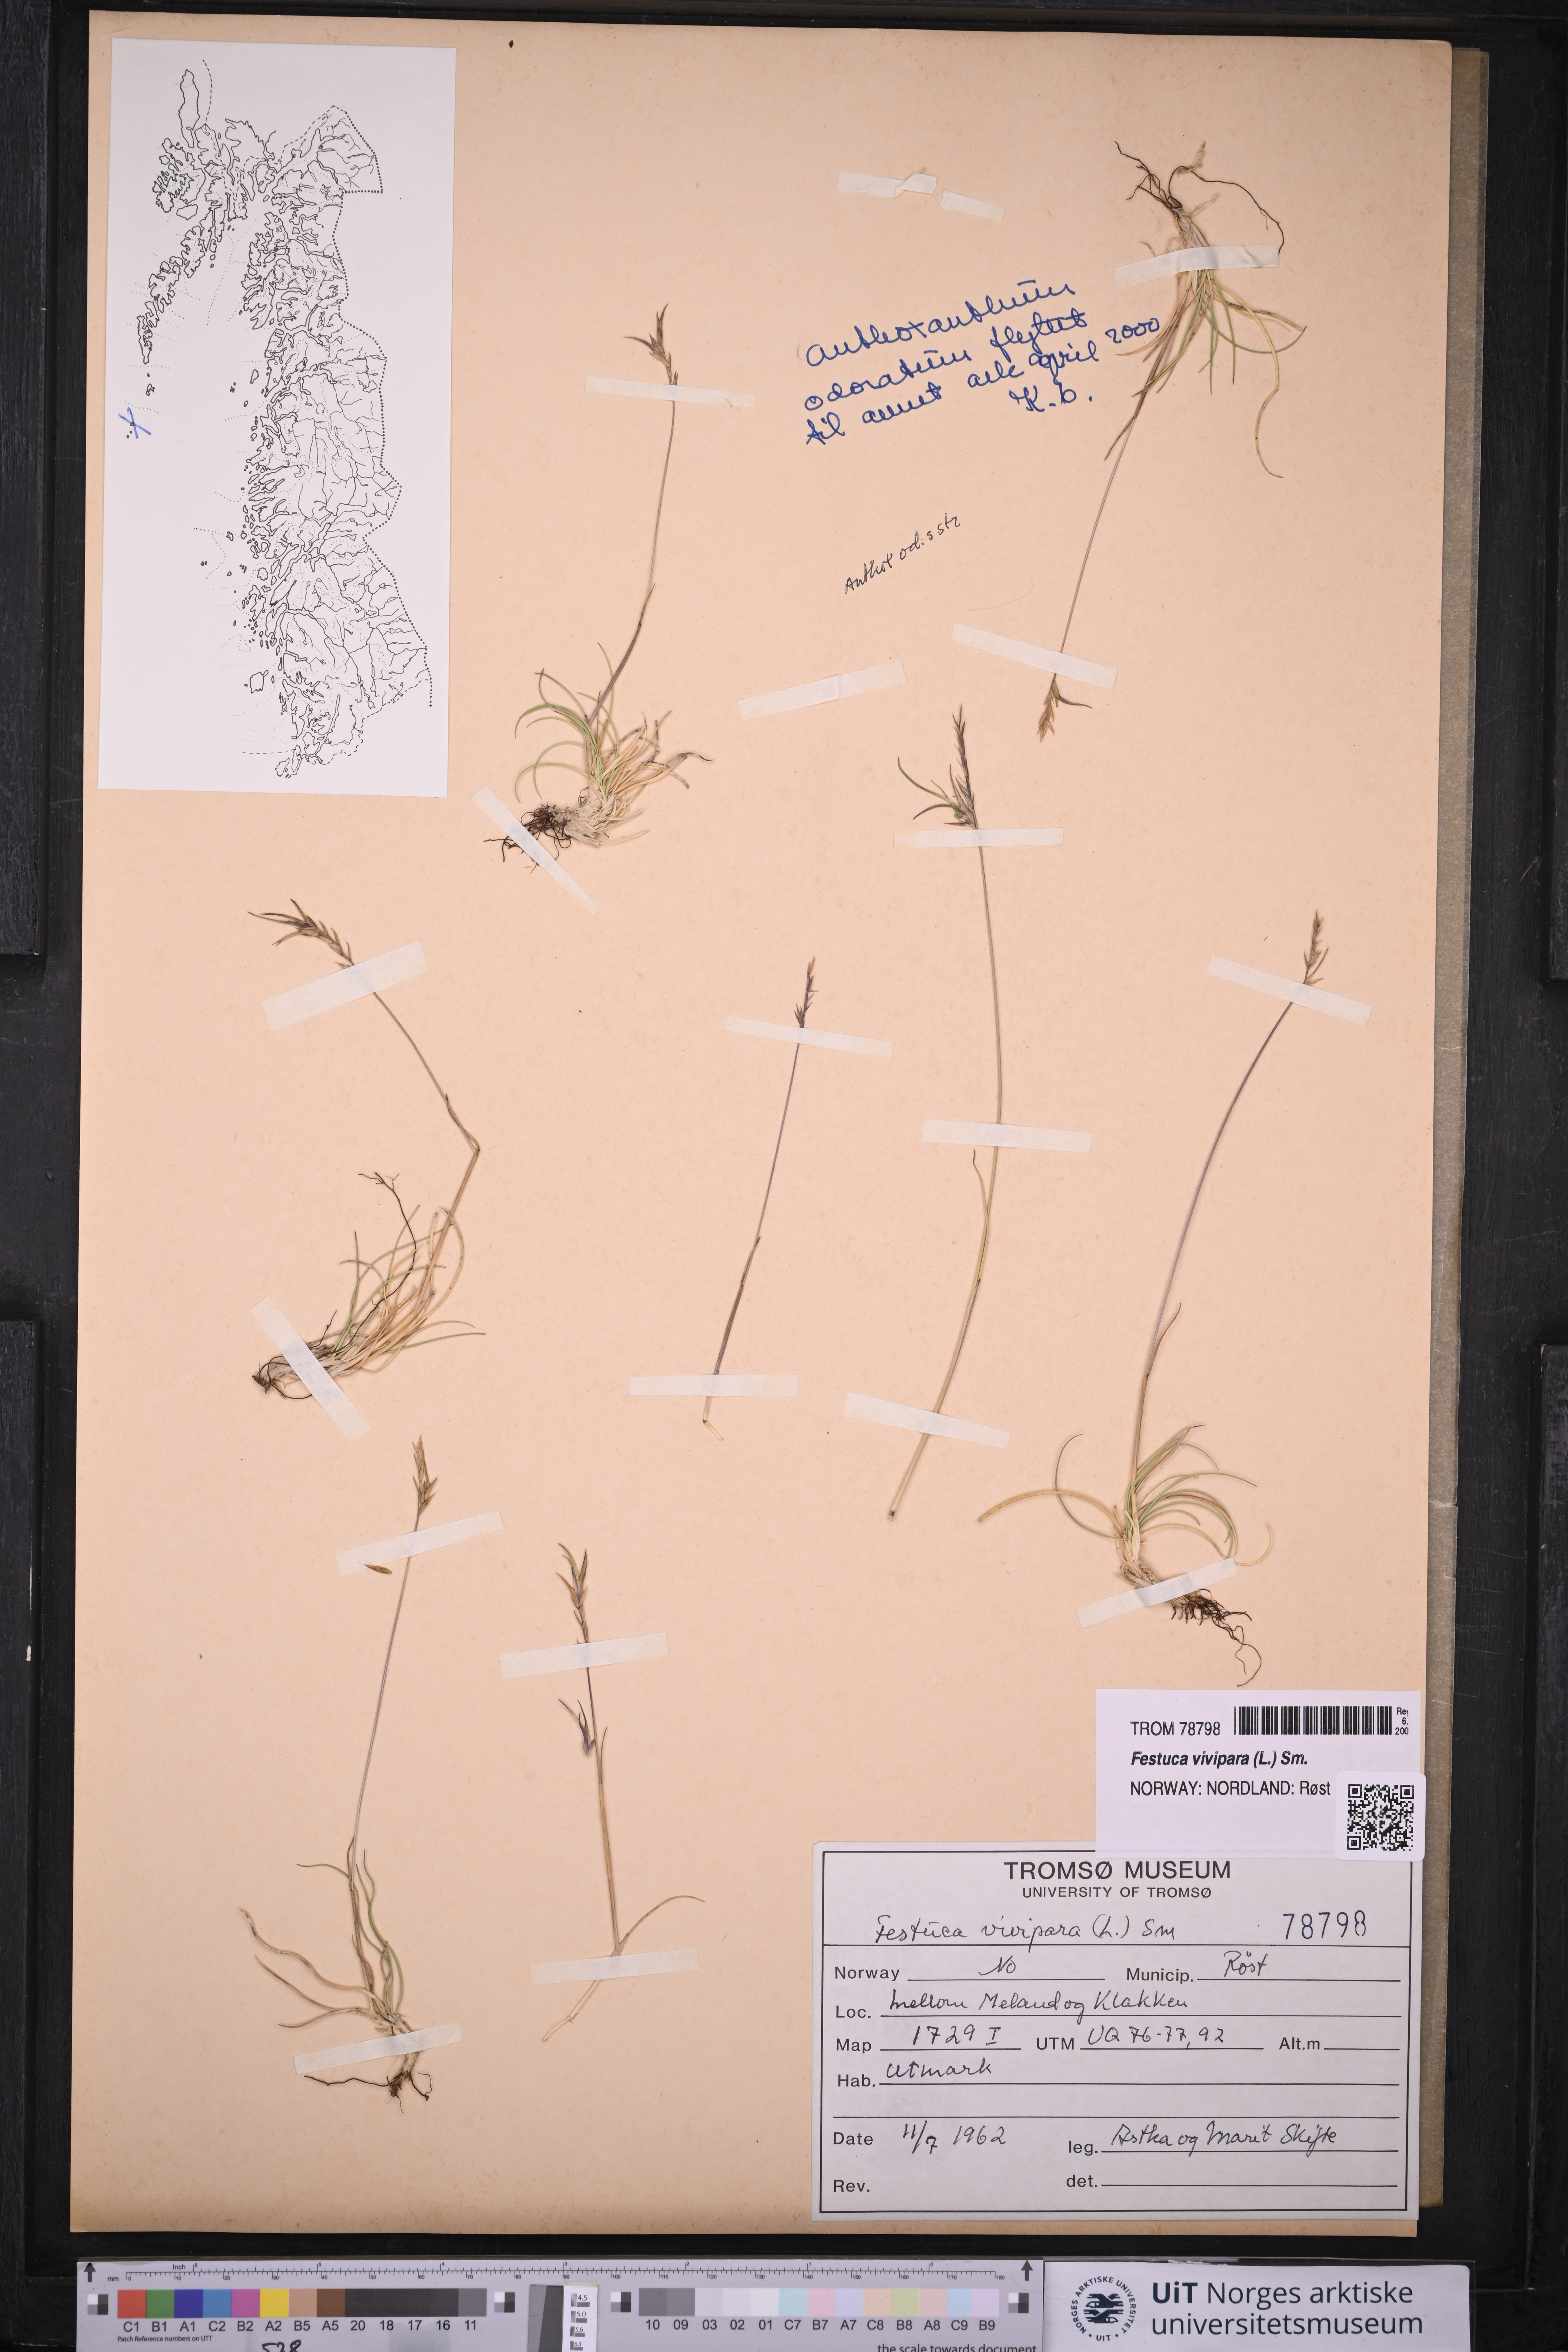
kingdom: Plantae
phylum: Tracheophyta
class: Liliopsida
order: Poales
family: Poaceae
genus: Festuca
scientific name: Festuca vivipara
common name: Viviparous sheep's-fescue
